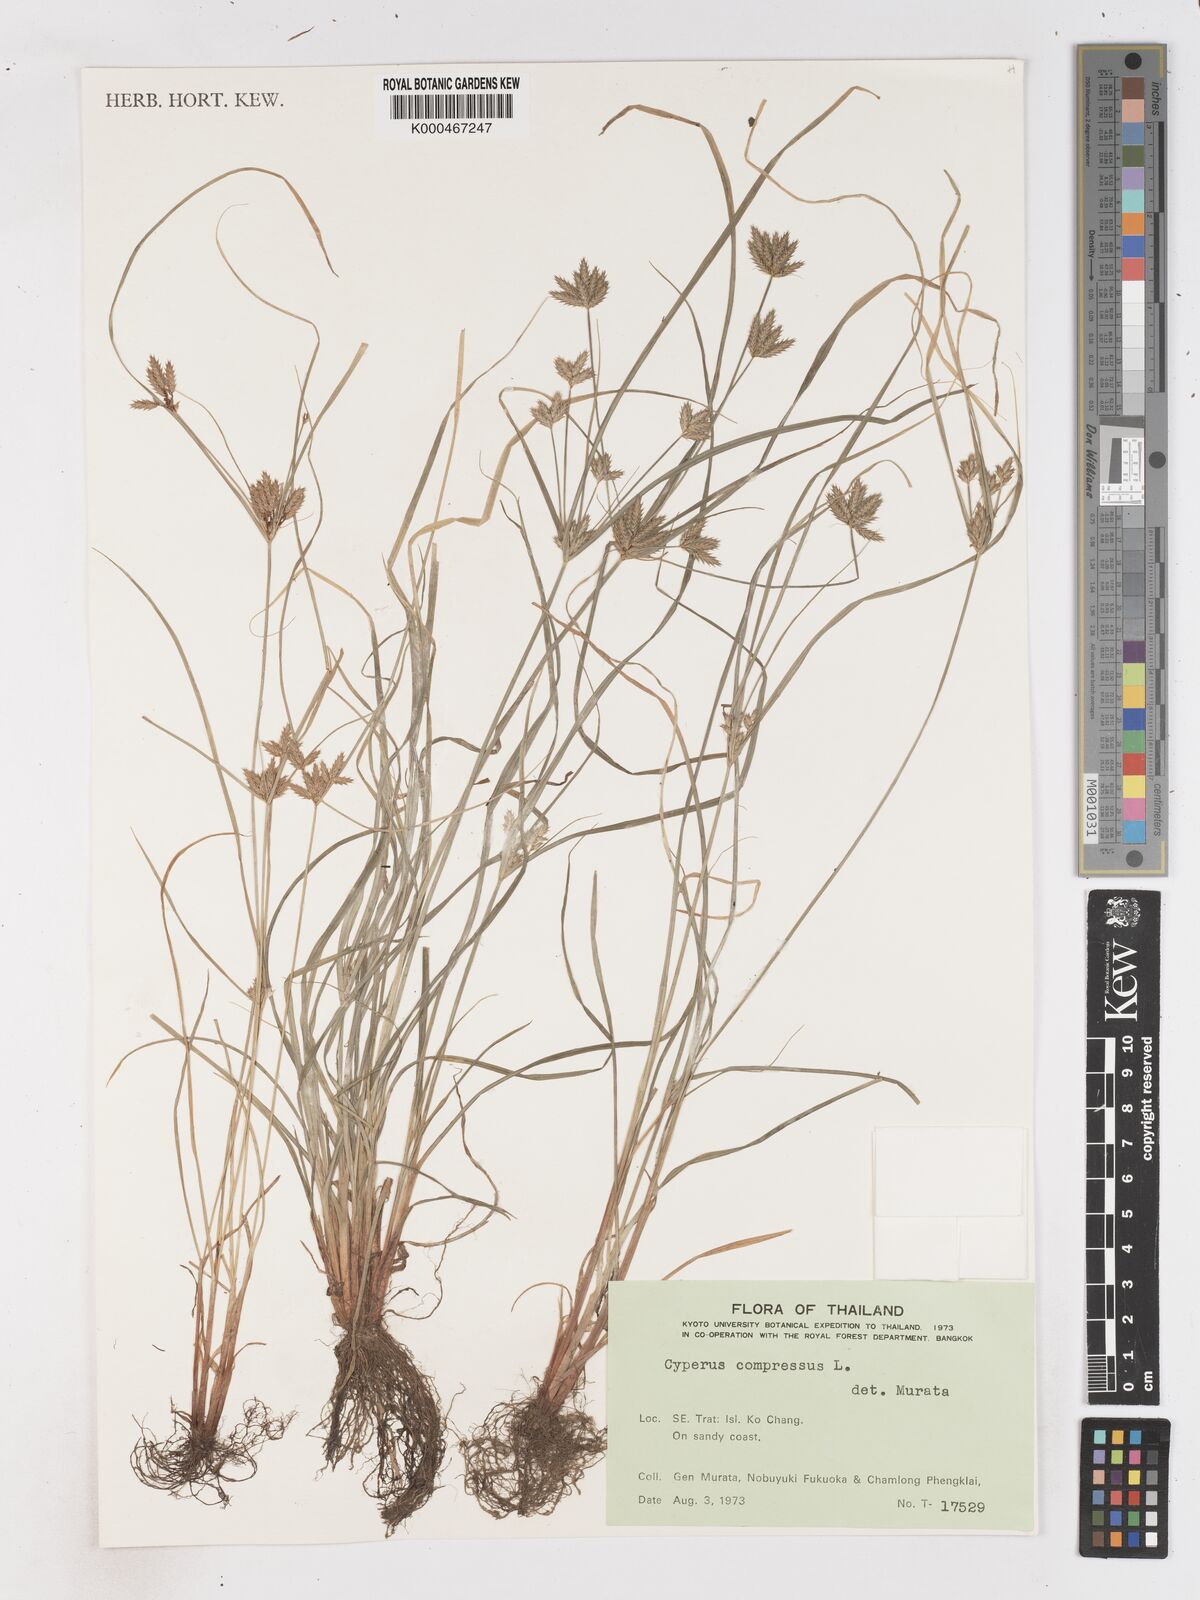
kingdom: Plantae
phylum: Tracheophyta
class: Liliopsida
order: Poales
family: Cyperaceae
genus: Cyperus
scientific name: Cyperus compressus
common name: Poorland flatsedge
